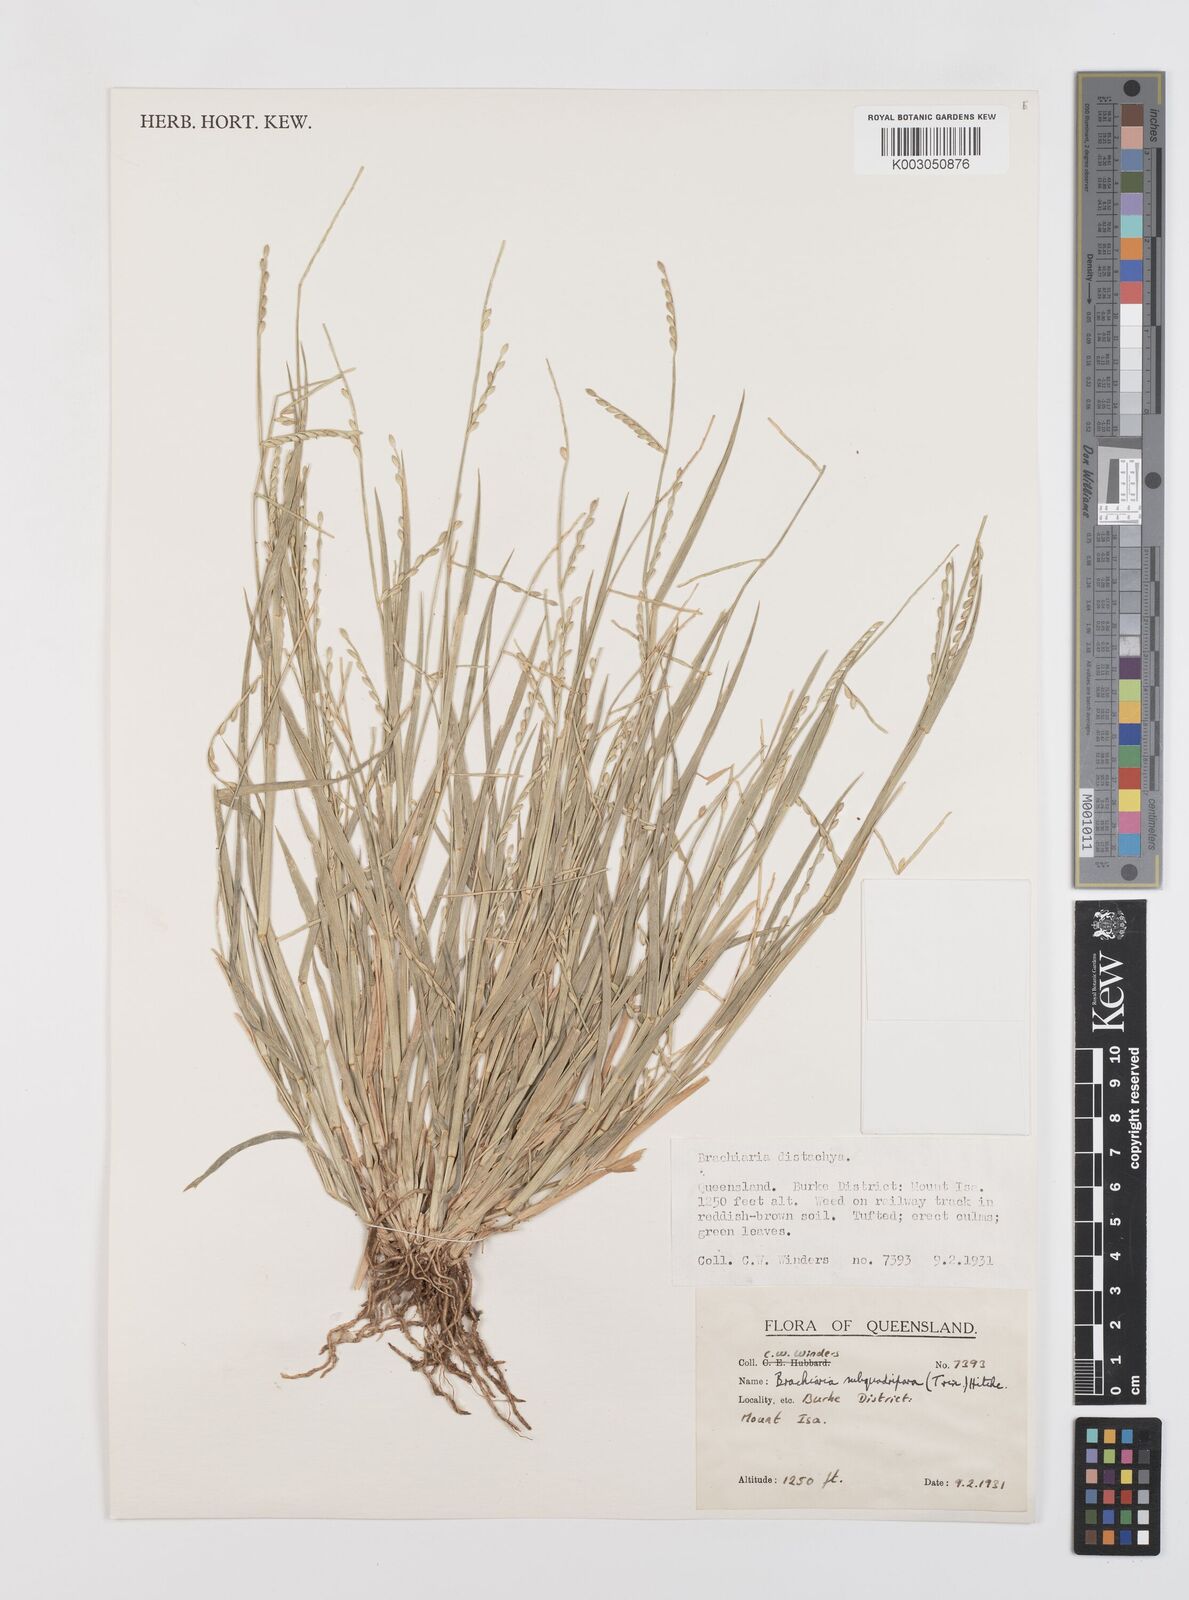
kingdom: Plantae
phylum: Tracheophyta
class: Liliopsida
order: Poales
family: Poaceae
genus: Urochloa
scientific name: Urochloa subquadripara
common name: Armgrass millet
